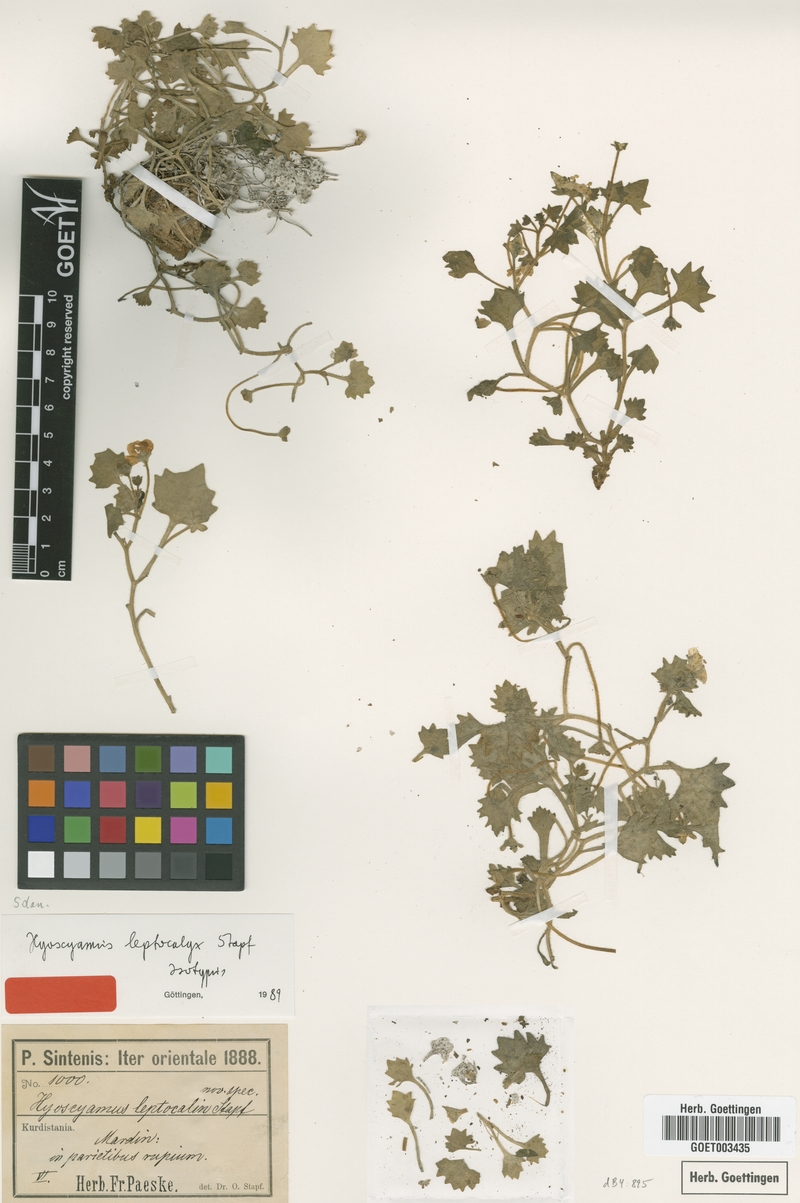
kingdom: Plantae
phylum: Tracheophyta
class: Magnoliopsida
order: Solanales
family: Solanaceae
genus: Hyoscyamus
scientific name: Hyoscyamus leptocalyx
